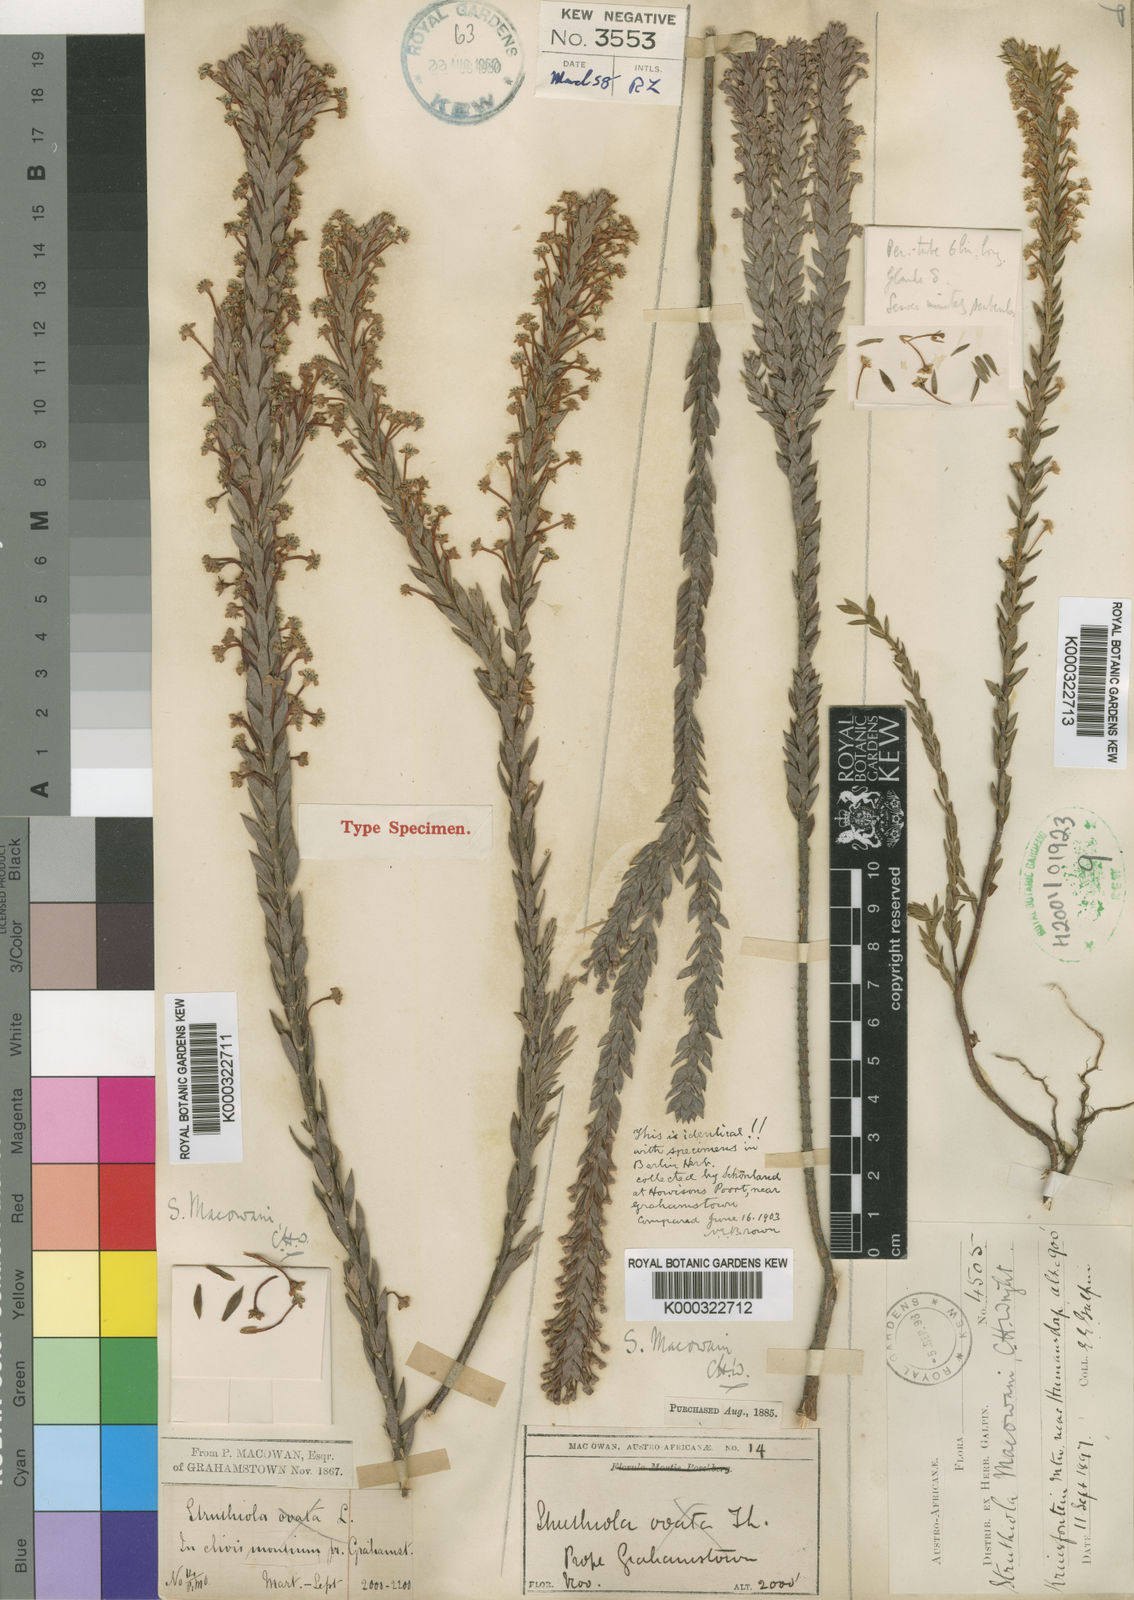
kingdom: Plantae
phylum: Tracheophyta
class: Magnoliopsida
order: Malvales
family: Thymelaeaceae
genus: Struthiola
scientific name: Struthiola macowanii
